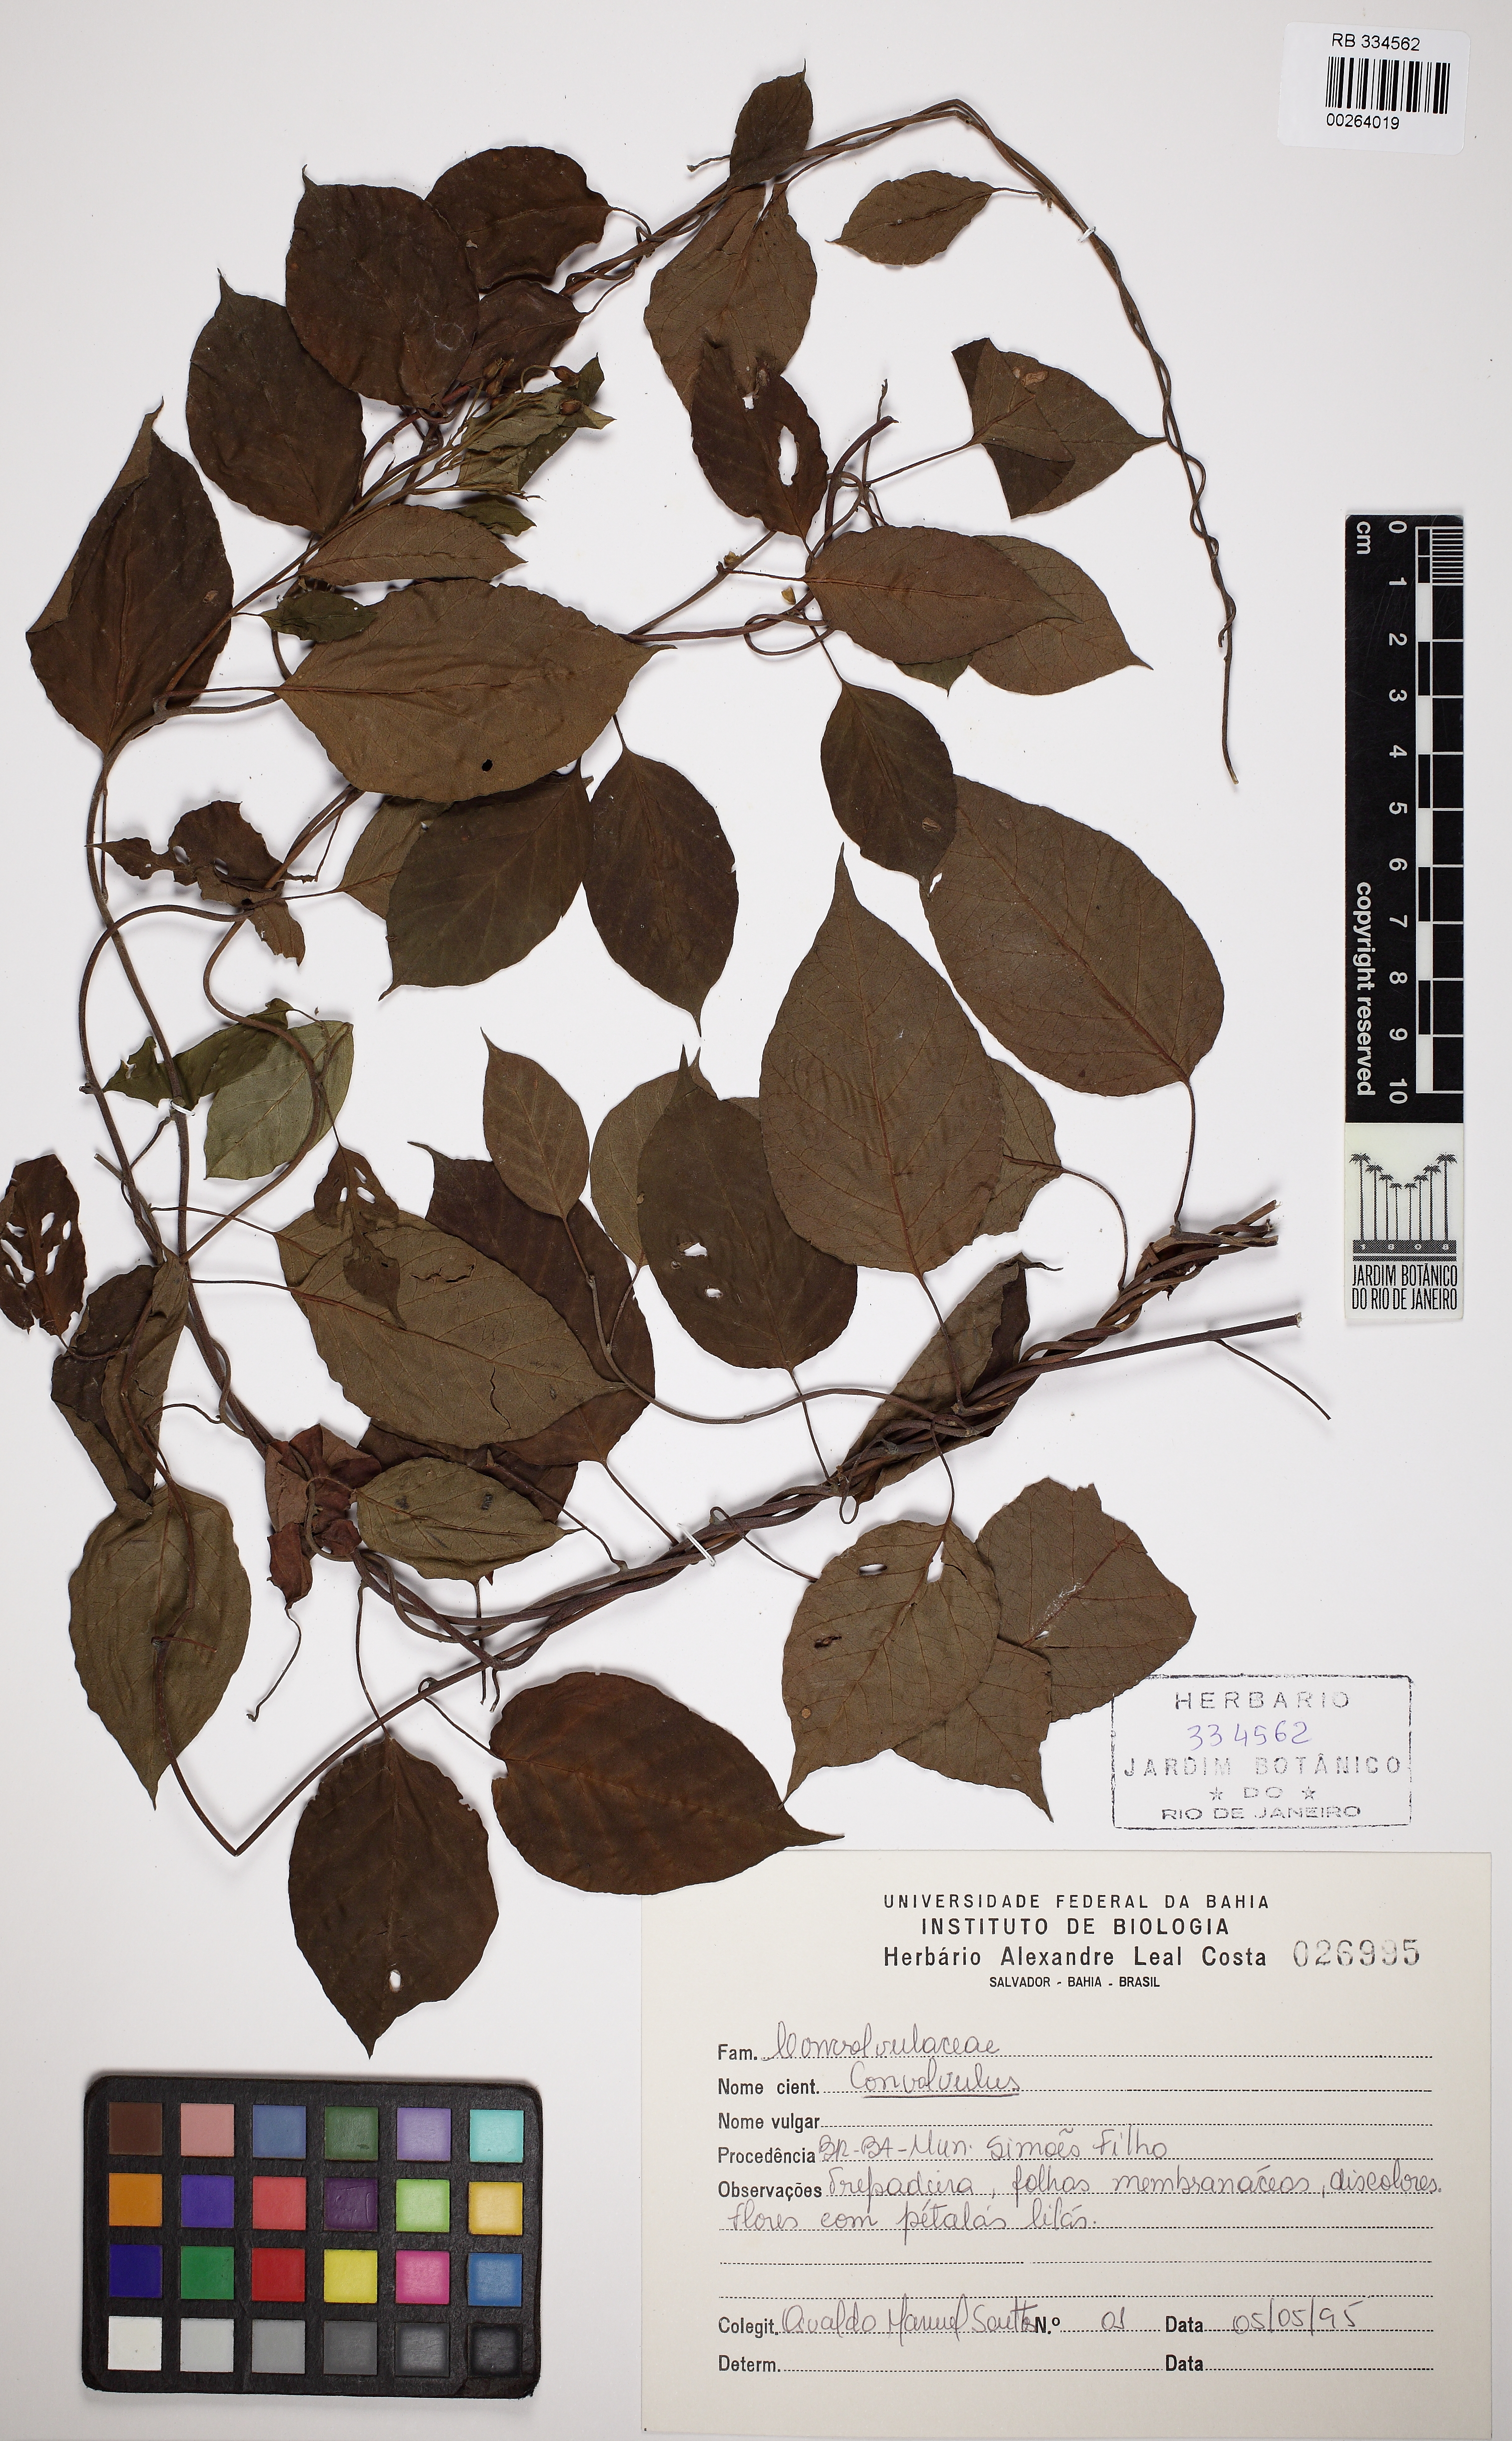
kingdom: Plantae
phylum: Tracheophyta
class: Magnoliopsida
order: Solanales
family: Convolvulaceae
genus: Jacquemontia
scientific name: Jacquemontia
